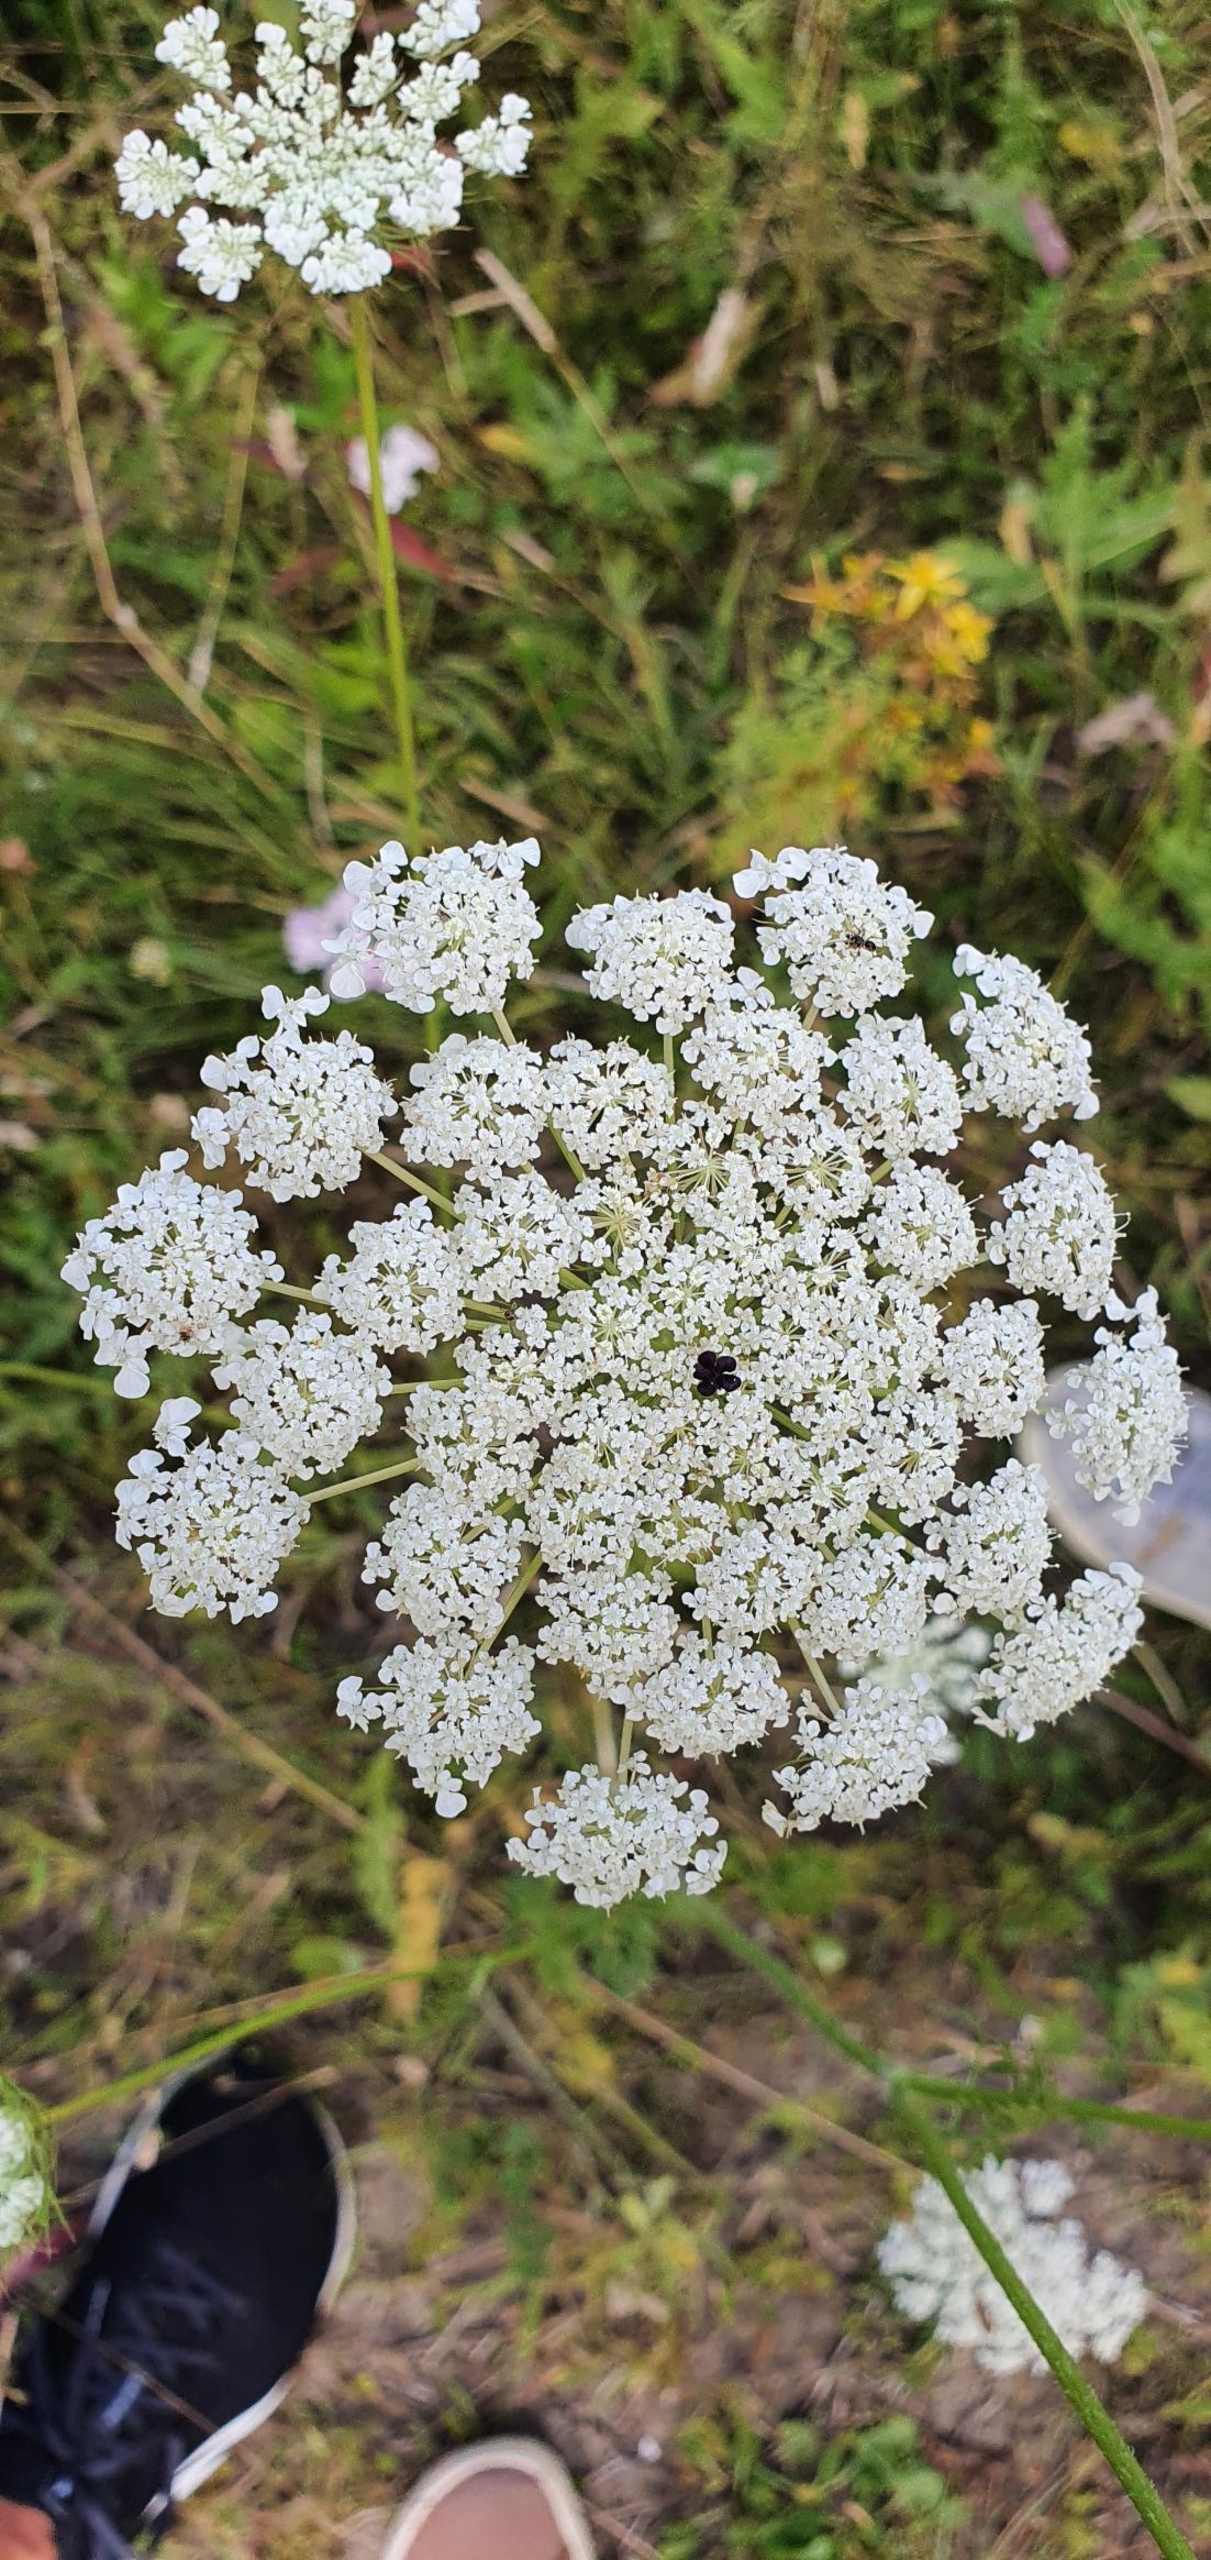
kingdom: Plantae
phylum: Tracheophyta
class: Magnoliopsida
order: Apiales
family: Apiaceae
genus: Daucus
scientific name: Daucus carota
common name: Gulerod
